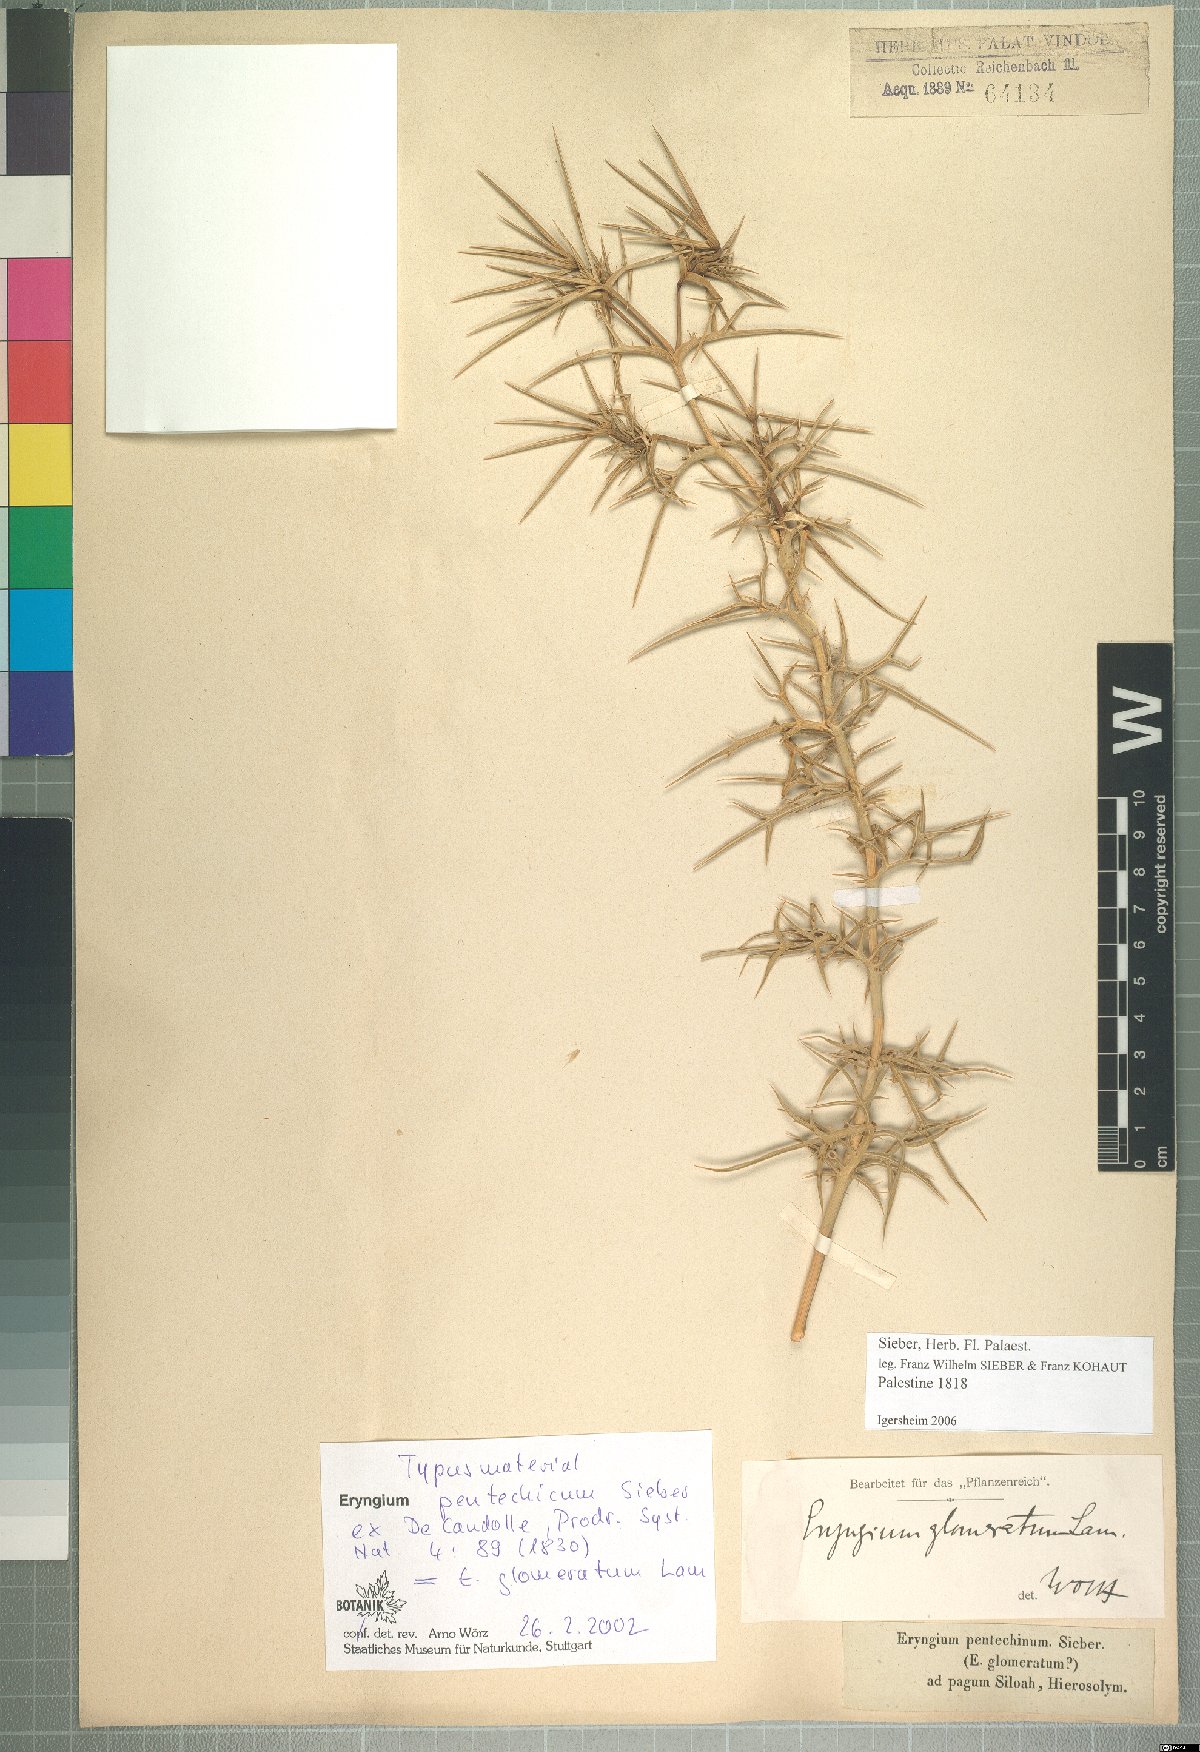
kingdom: Plantae
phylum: Tracheophyta
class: Magnoliopsida
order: Apiales
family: Apiaceae
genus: Eryngium
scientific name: Eryngium glomeratum
